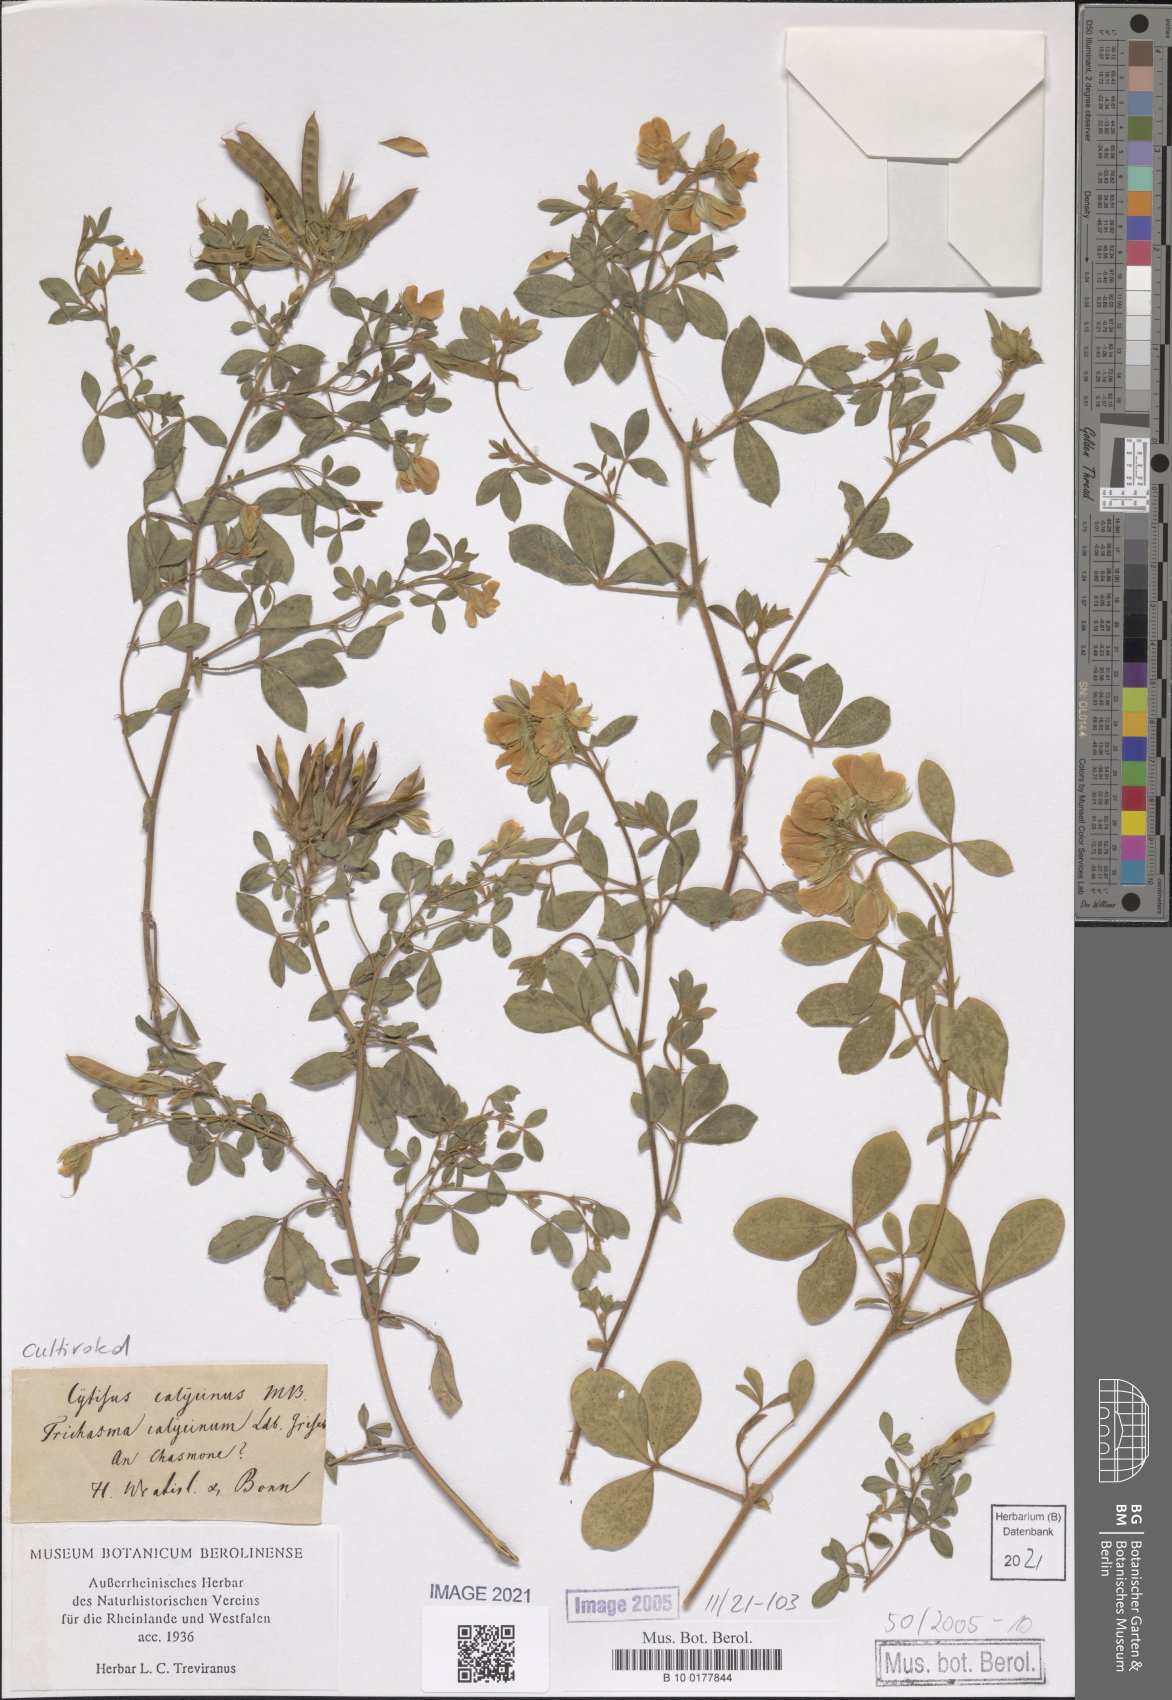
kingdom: Plantae
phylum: Tracheophyta
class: Magnoliopsida
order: Fabales
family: Fabaceae
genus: Argyrolobium
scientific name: Argyrolobium biebersteinii
